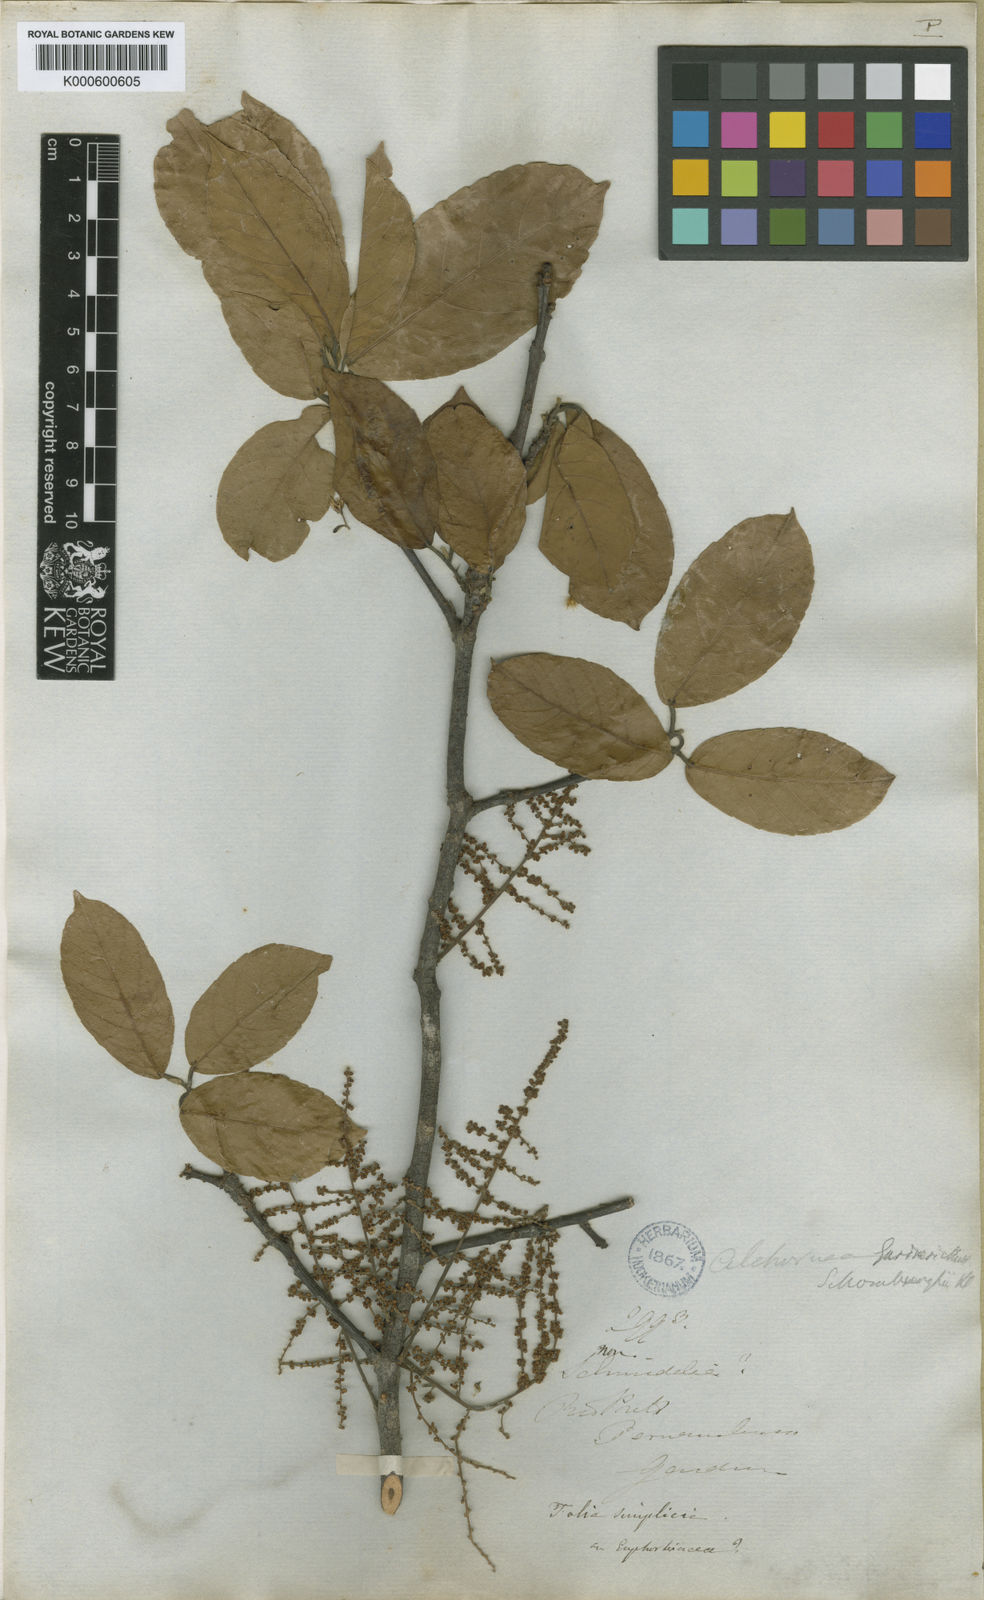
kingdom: Plantae
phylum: Tracheophyta
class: Magnoliopsida
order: Malpighiales
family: Euphorbiaceae
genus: Alchornea
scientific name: Alchornea discolor
